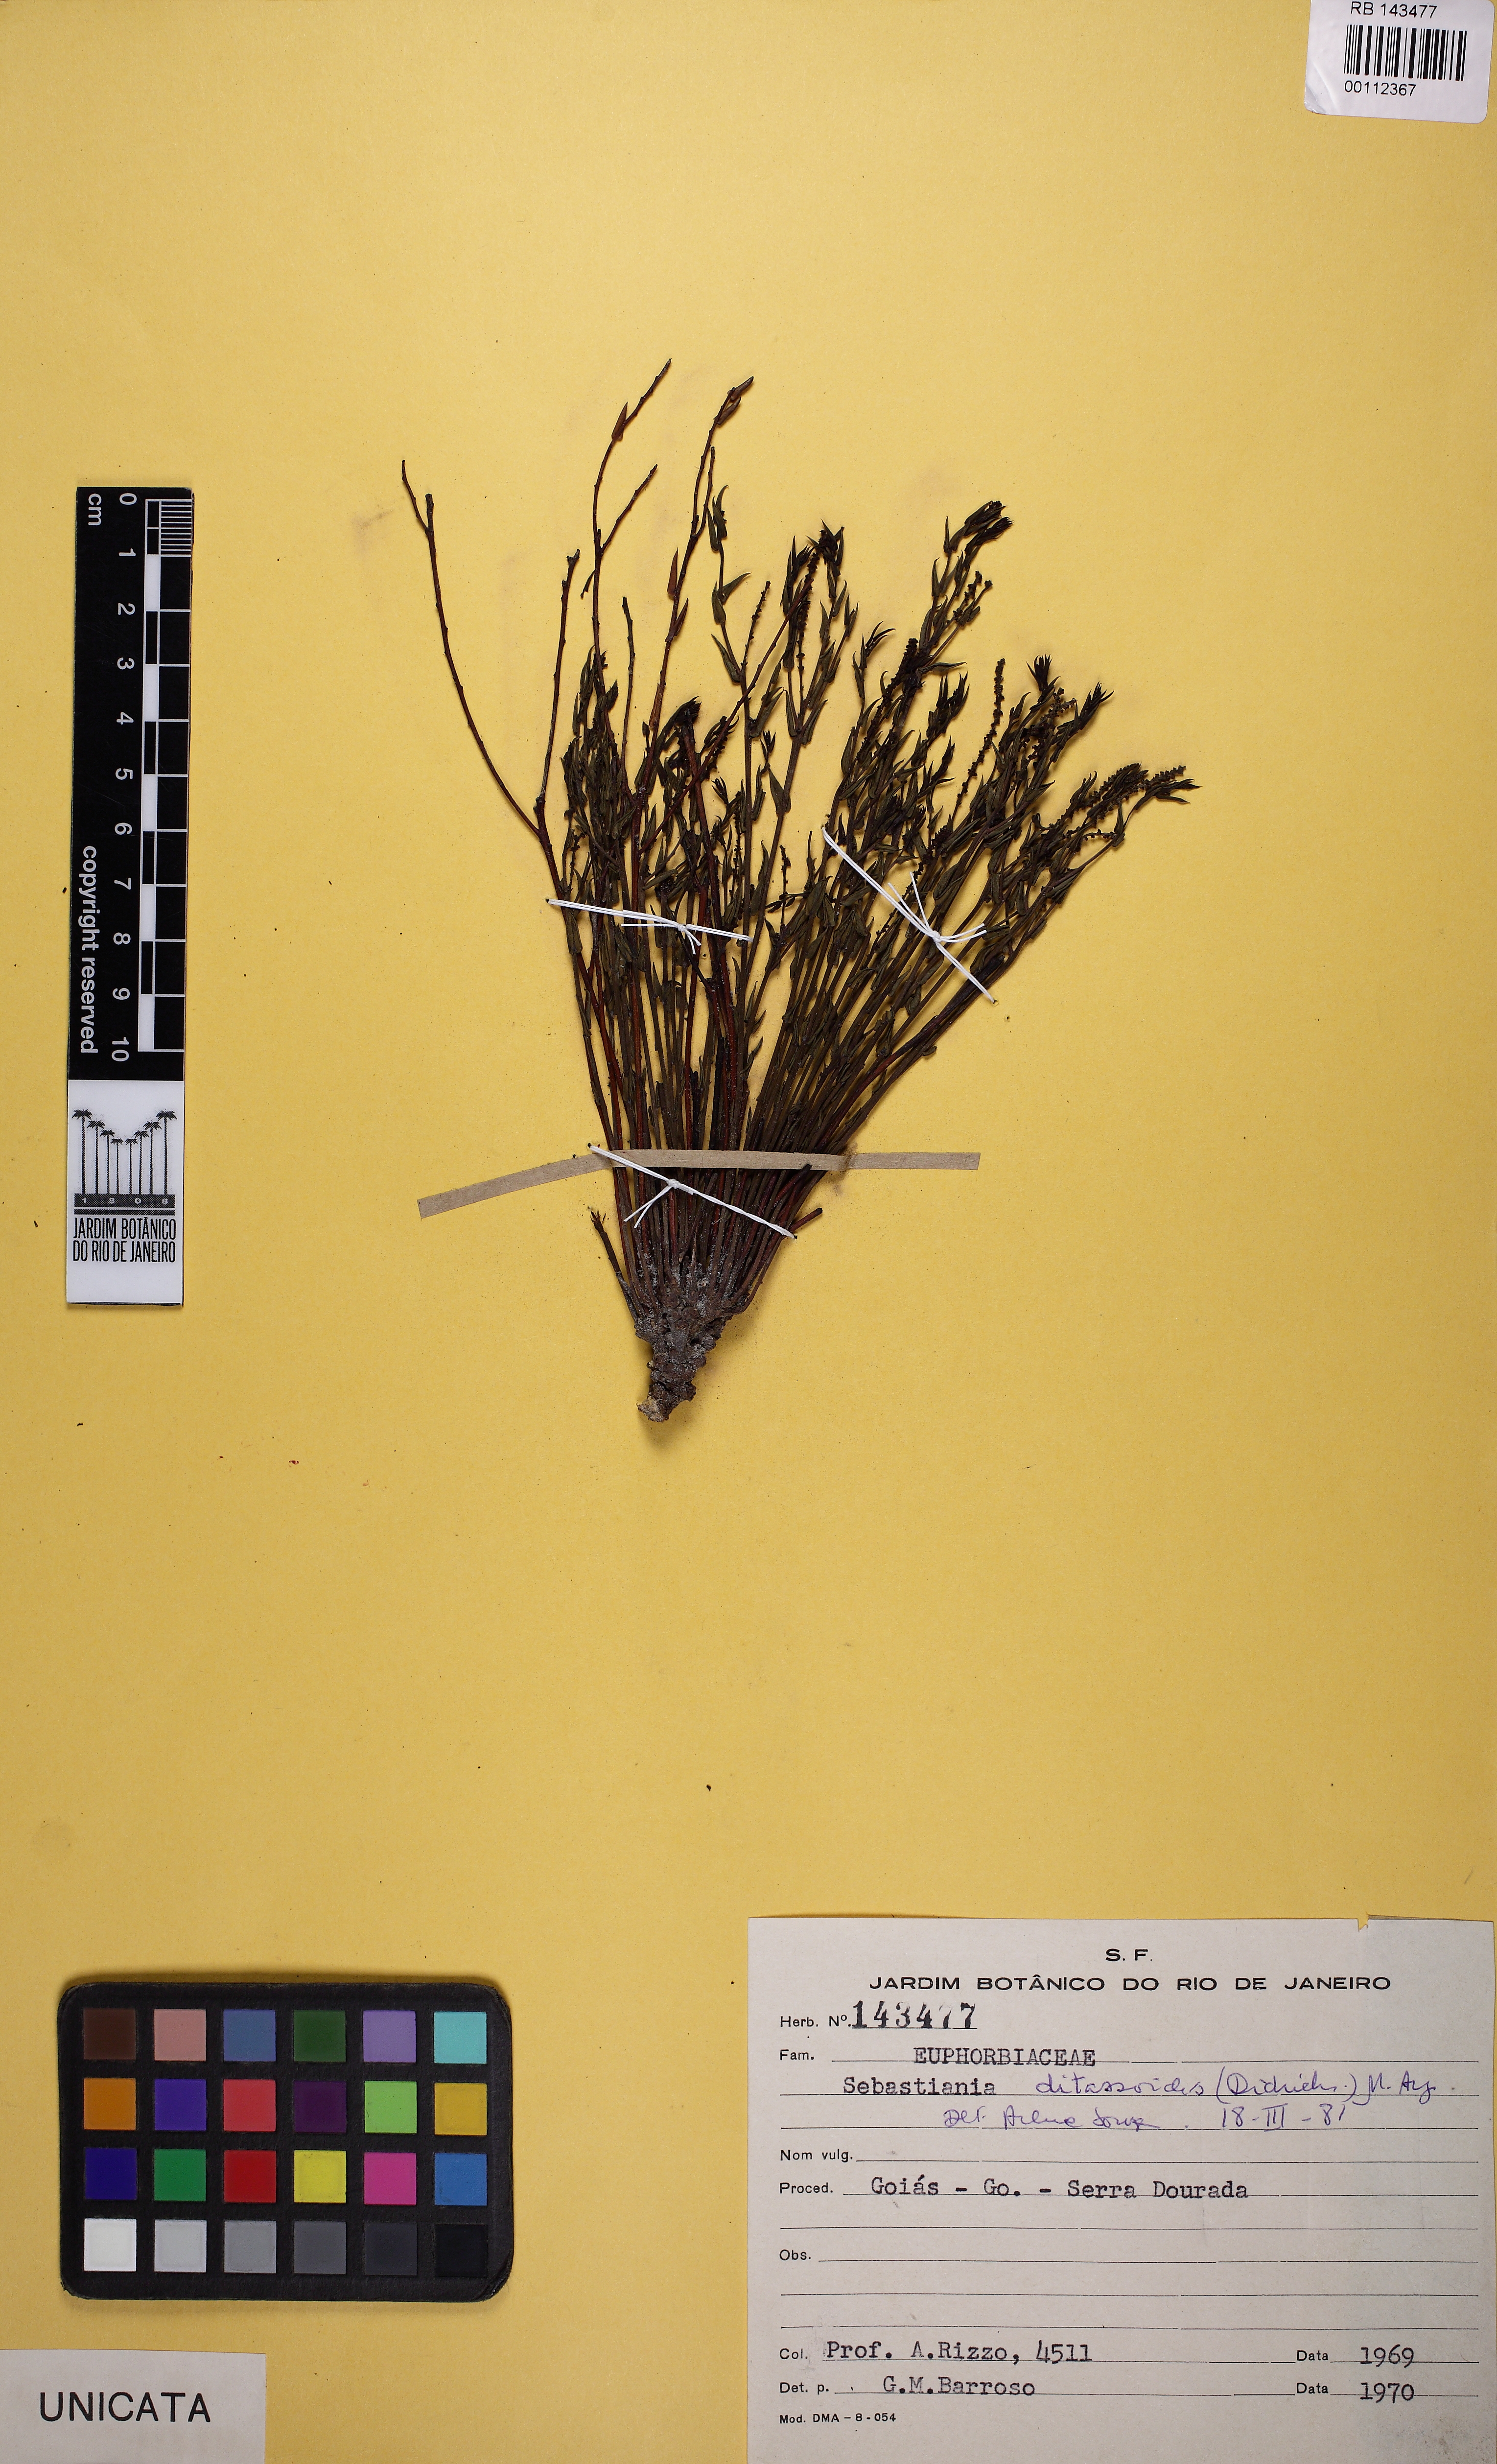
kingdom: Plantae
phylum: Tracheophyta
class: Magnoliopsida
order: Malpighiales
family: Euphorbiaceae
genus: Microstachys
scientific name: Microstachys ditassoides
